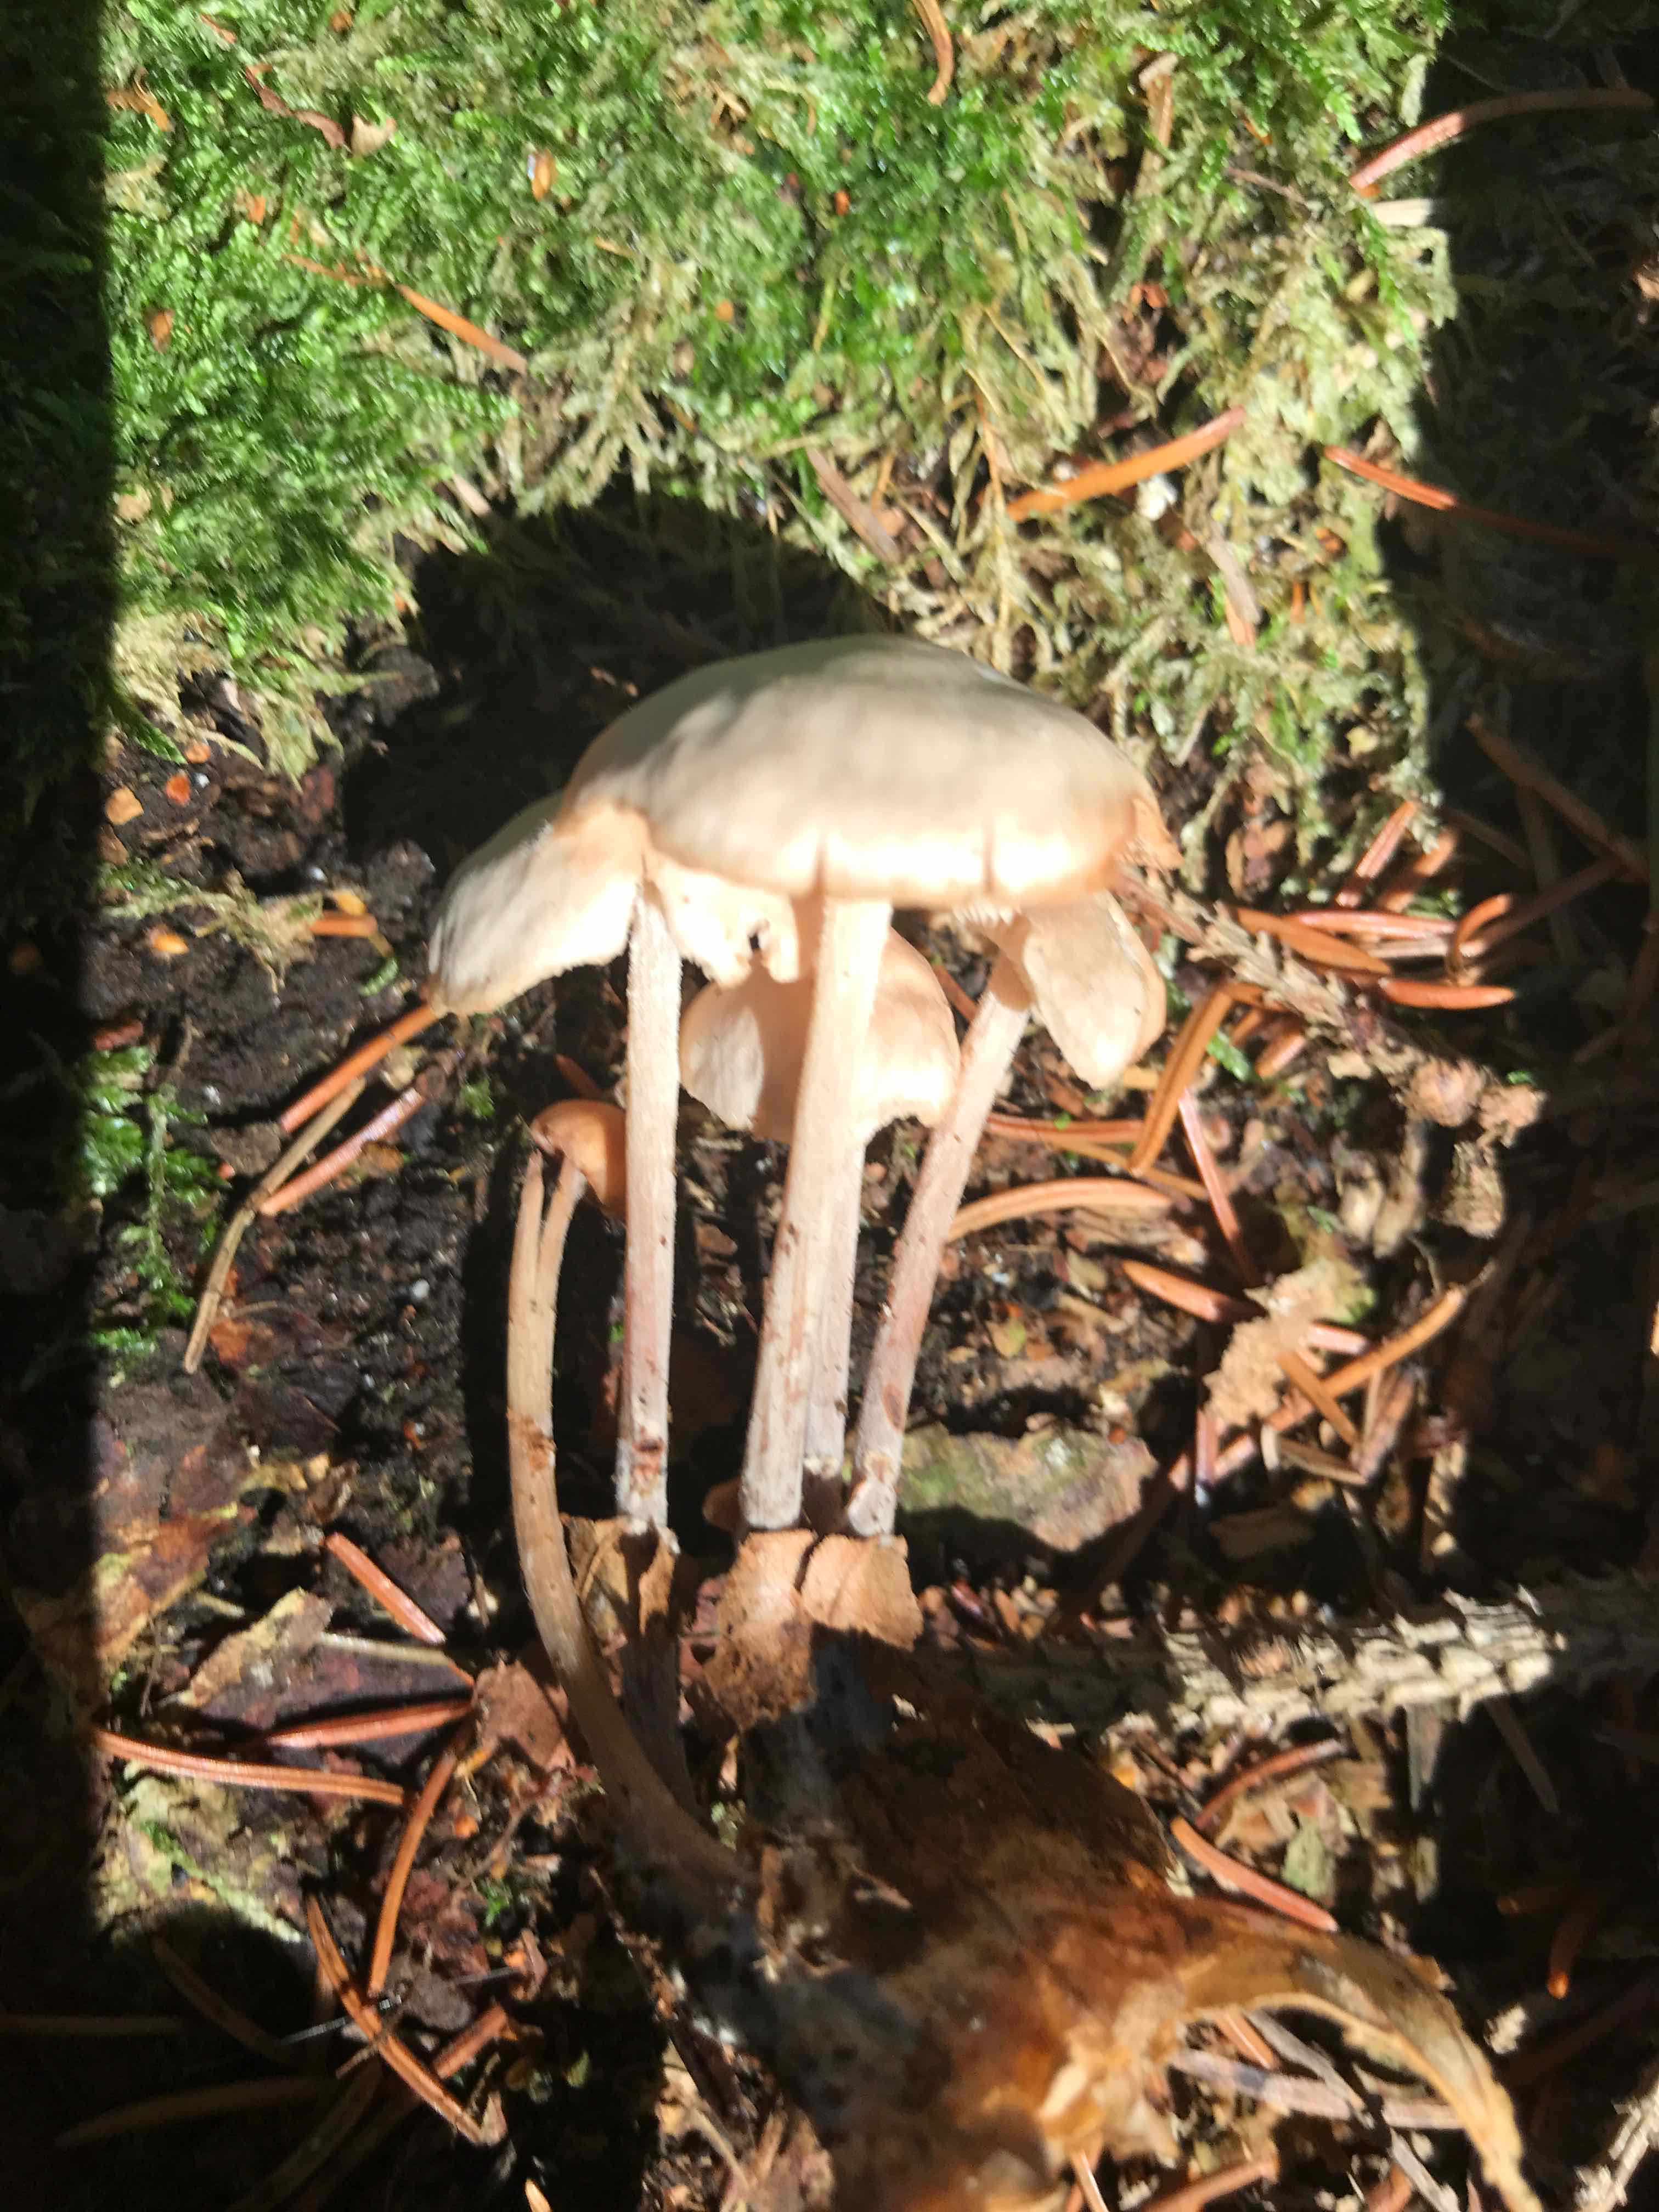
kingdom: Fungi
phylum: Basidiomycota
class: Agaricomycetes
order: Agaricales
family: Omphalotaceae
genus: Collybiopsis
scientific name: Collybiopsis confluens
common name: knippe-fladhat
